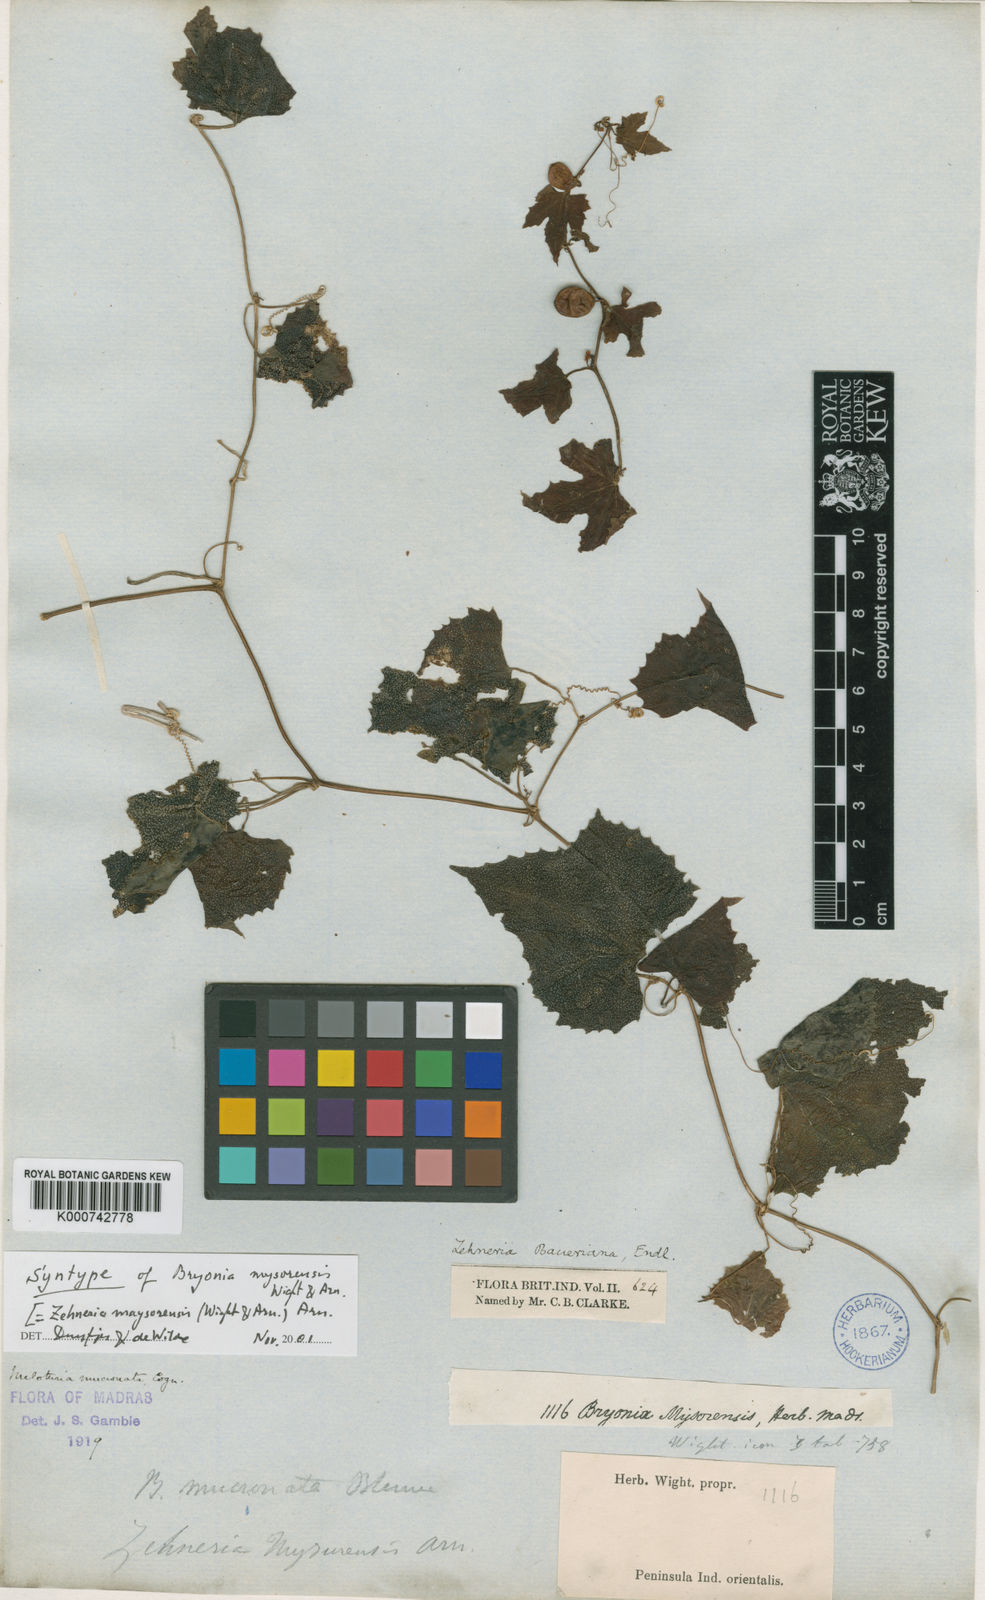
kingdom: Plantae
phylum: Tracheophyta
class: Magnoliopsida
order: Cucurbitales
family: Cucurbitaceae
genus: Zehneria
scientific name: Zehneria
